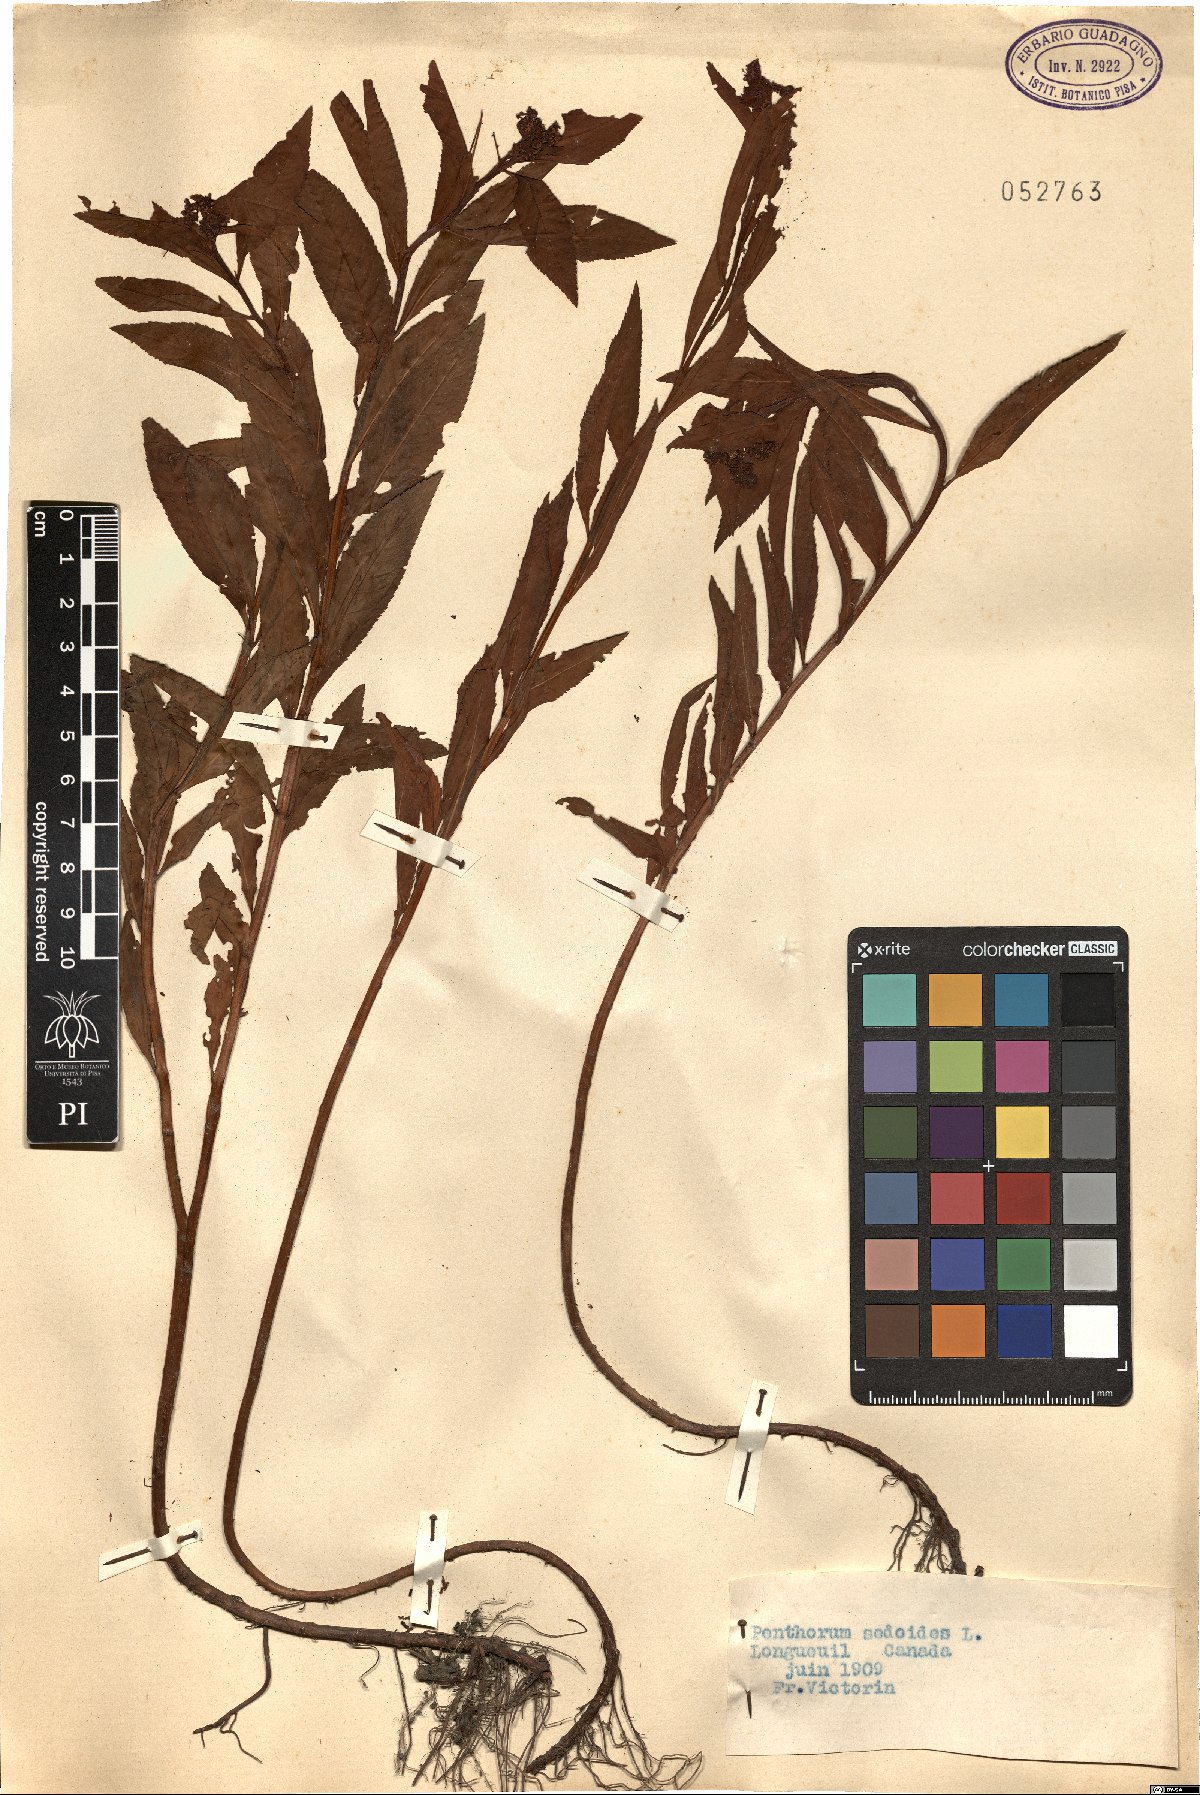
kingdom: Plantae
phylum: Tracheophyta
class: Magnoliopsida
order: Saxifragales
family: Penthoraceae
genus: Penthorum
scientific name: Penthorum sedoides
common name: Ditch stonecrop
